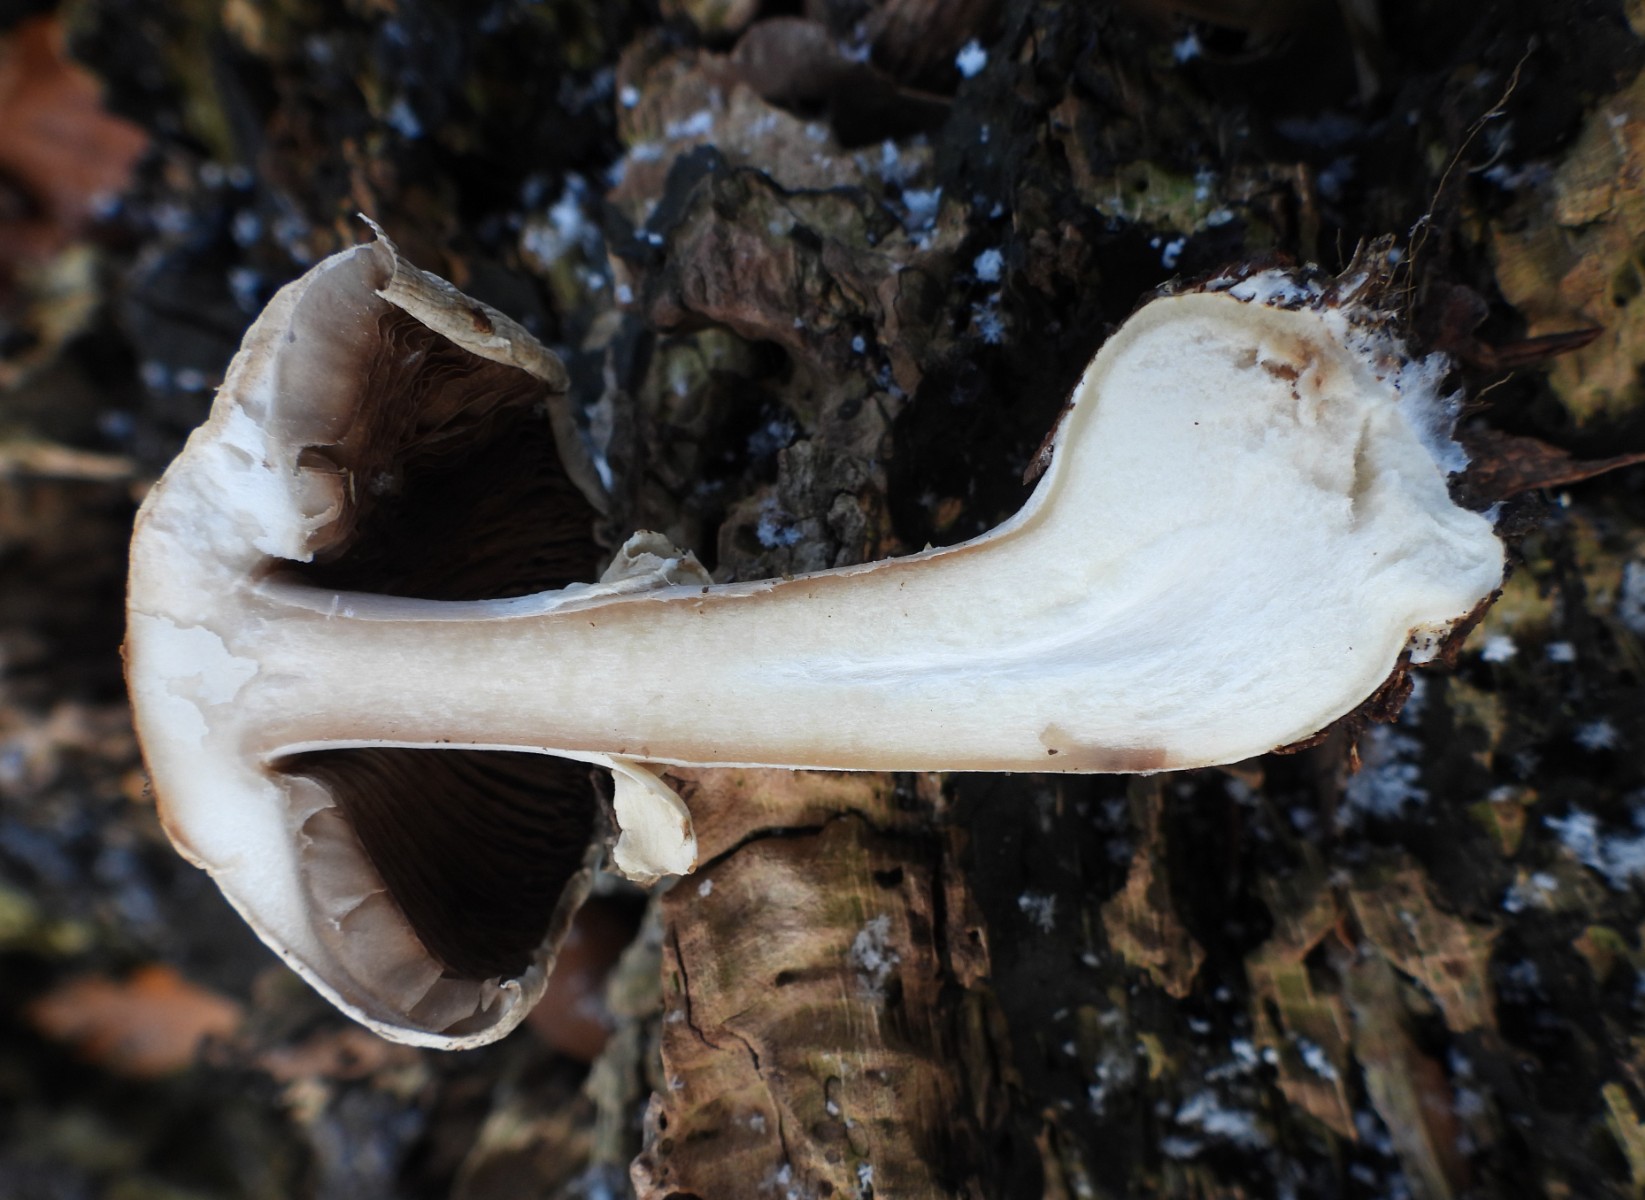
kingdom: Fungi
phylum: Basidiomycota
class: Agaricomycetes
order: Agaricales
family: Agaricaceae
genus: Agaricus
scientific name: Agaricus impudicus
